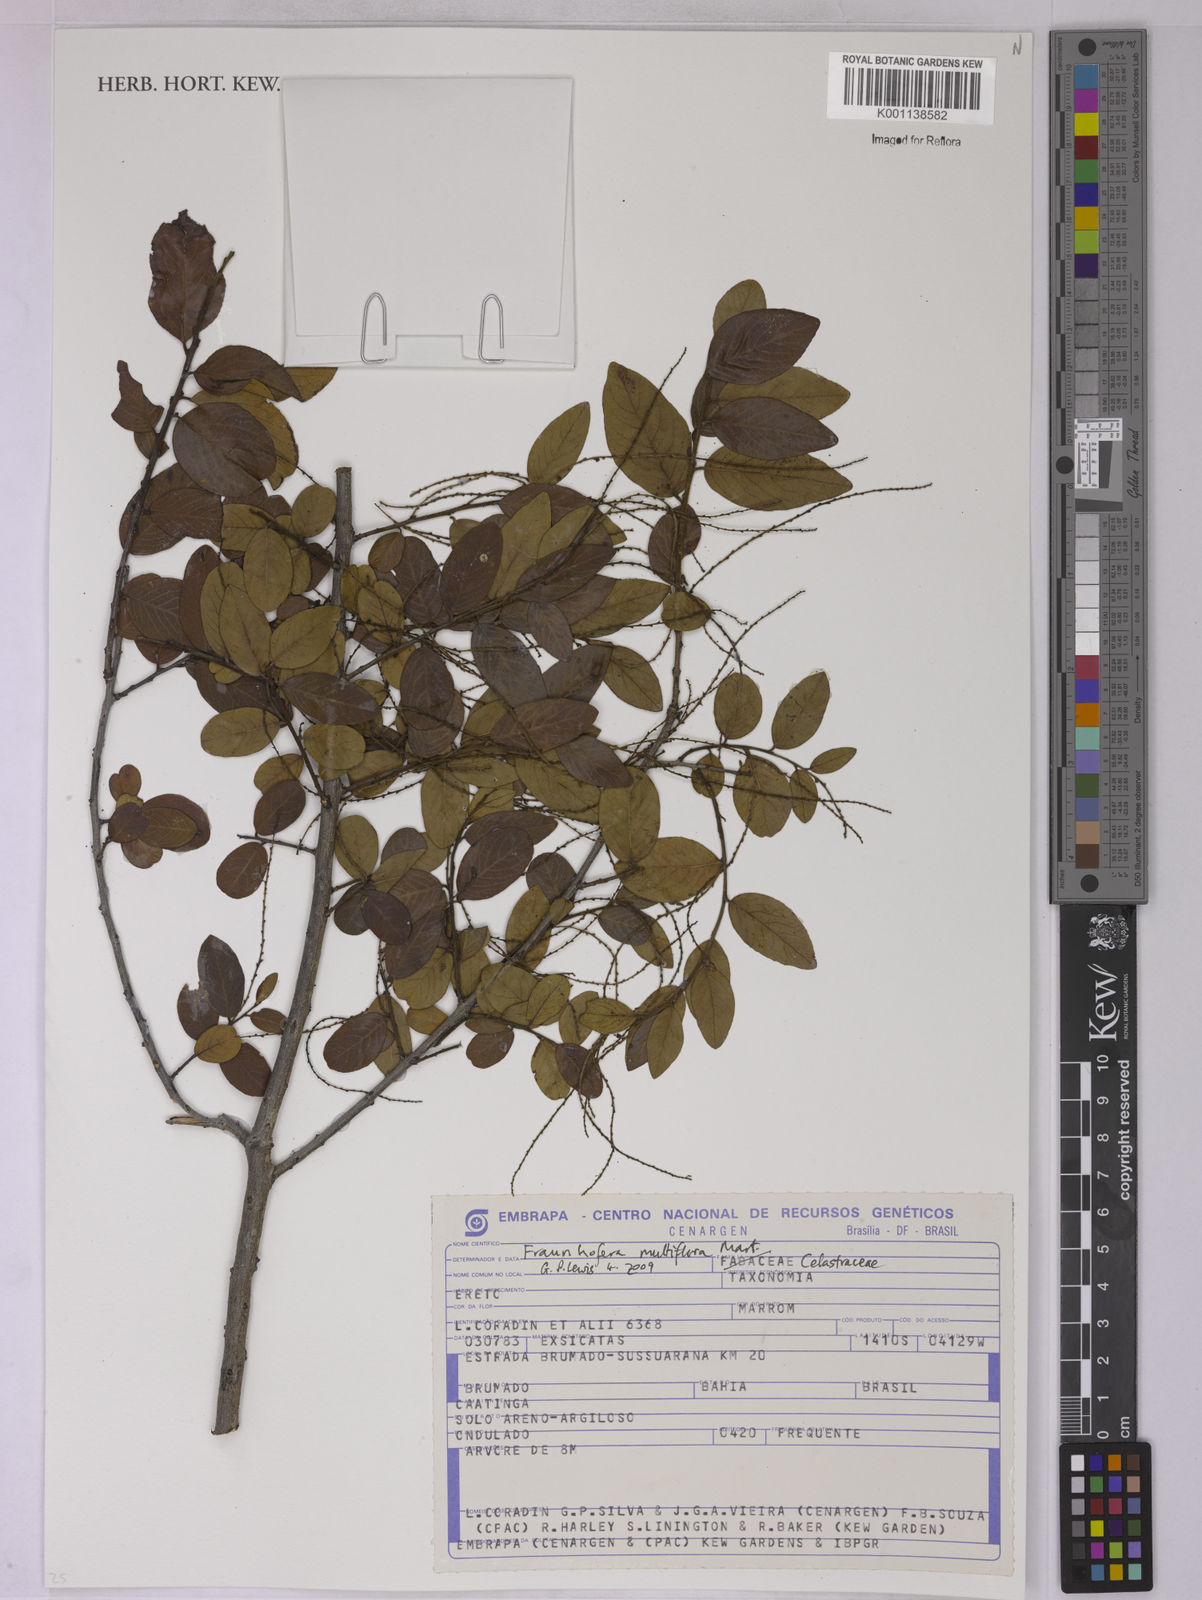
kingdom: Plantae
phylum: Tracheophyta
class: Magnoliopsida
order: Celastrales
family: Celastraceae
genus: Fraunhofera
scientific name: Fraunhofera multiflora
